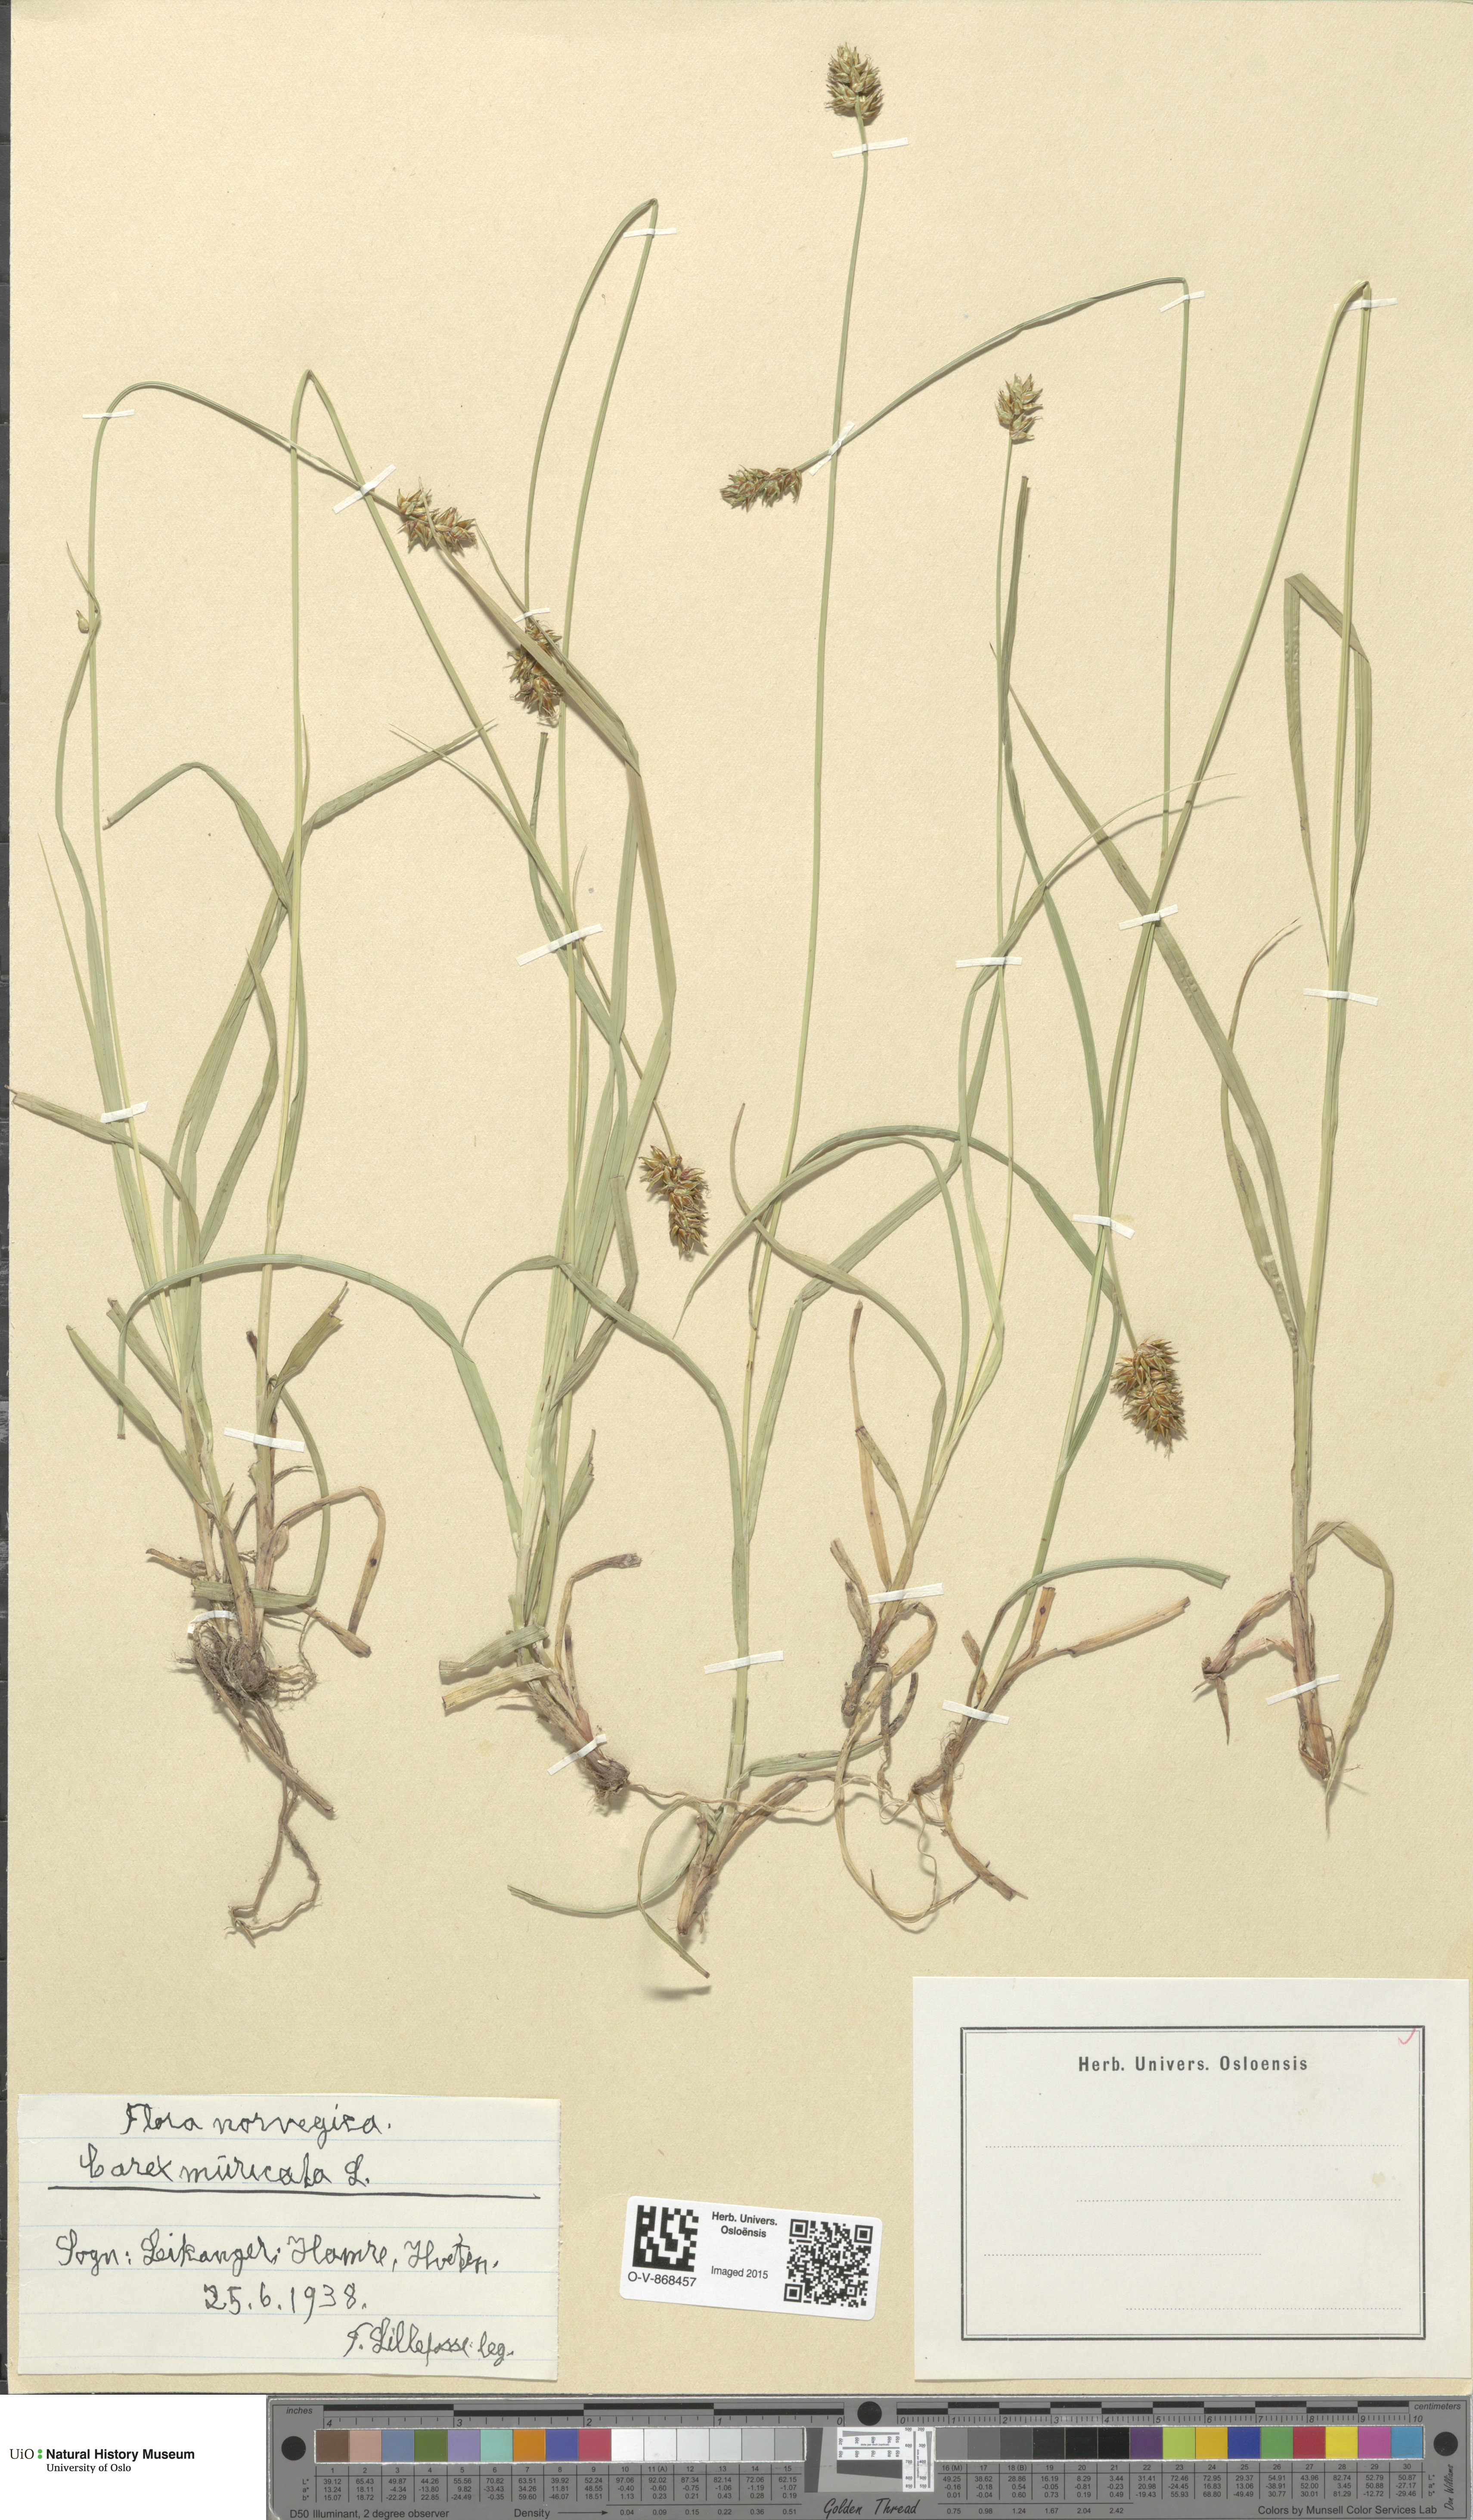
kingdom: Plantae
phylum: Tracheophyta
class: Liliopsida
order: Poales
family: Cyperaceae
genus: Carex
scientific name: Carex echinata
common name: Star sedge
